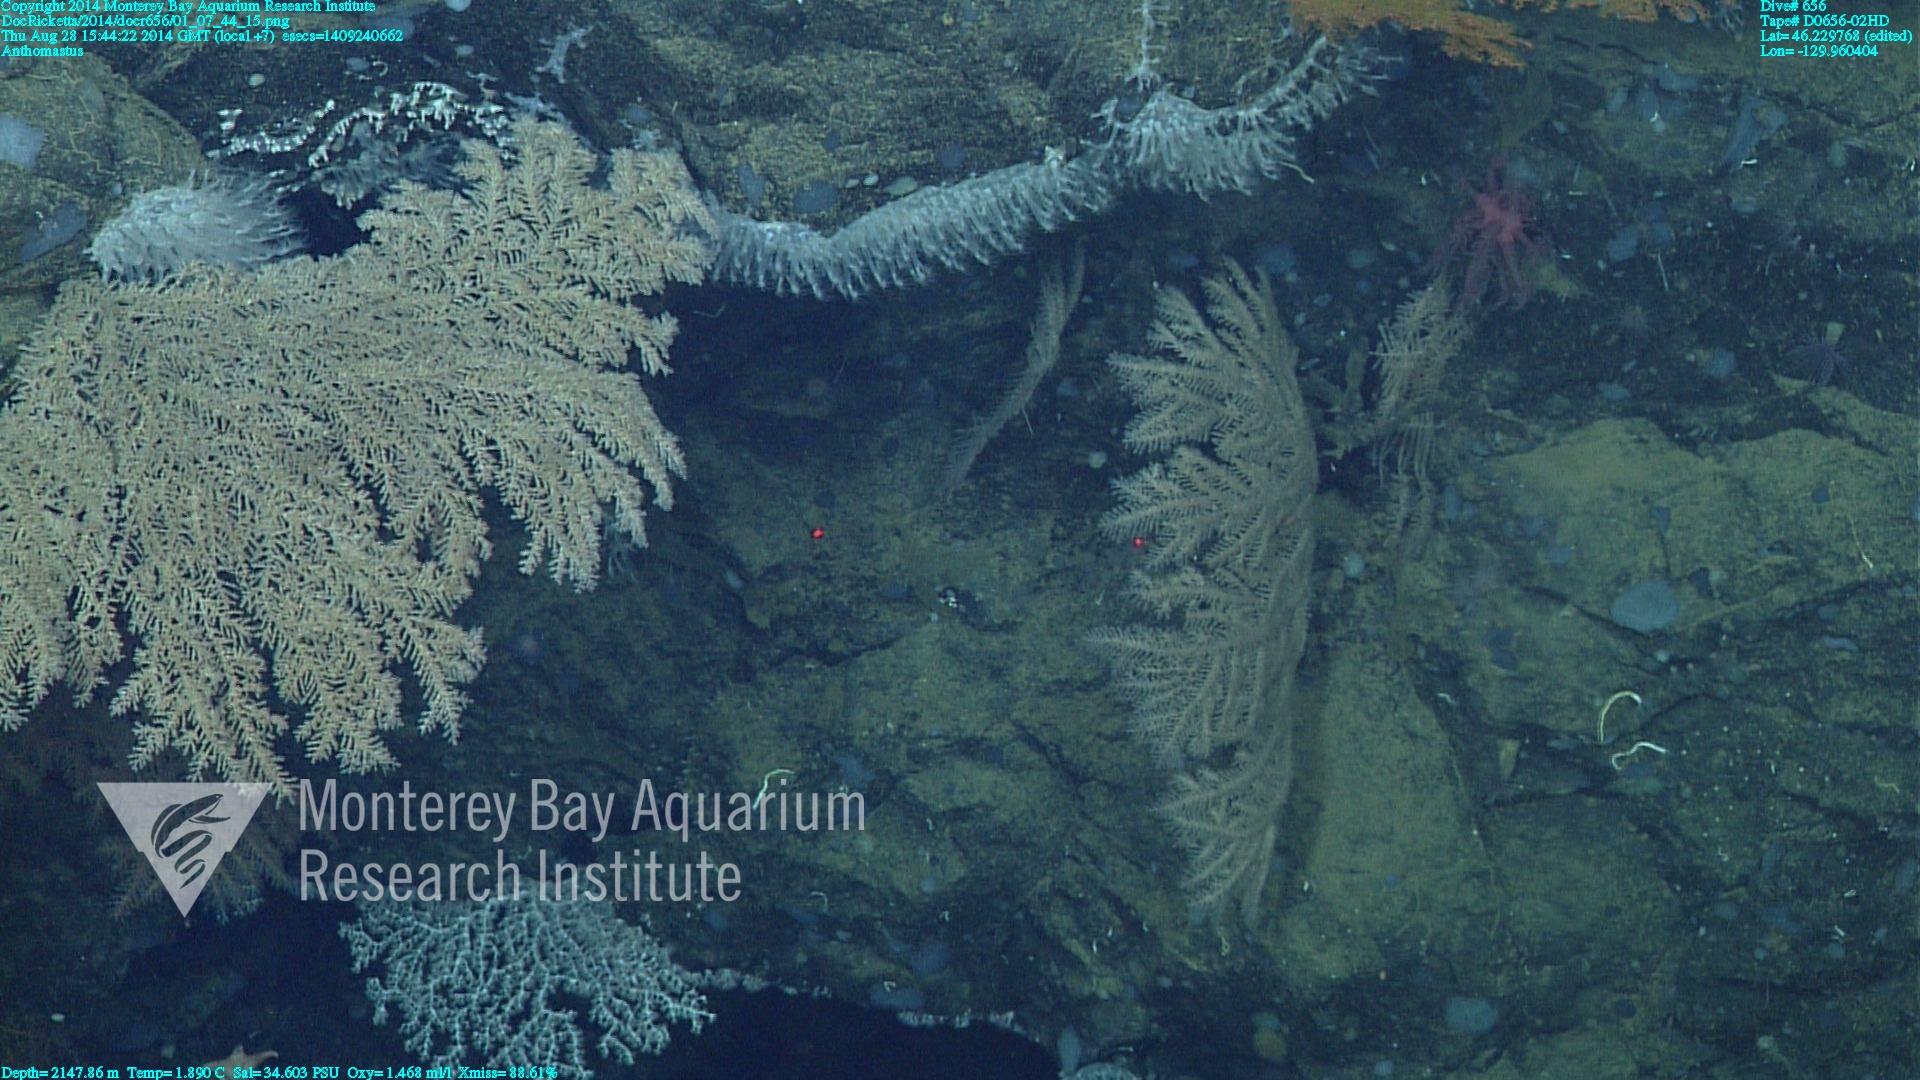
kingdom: Animalia
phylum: Cnidaria
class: Anthozoa
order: Scleralcyonacea
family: Coralliidae
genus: Heteropolypus
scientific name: Heteropolypus
